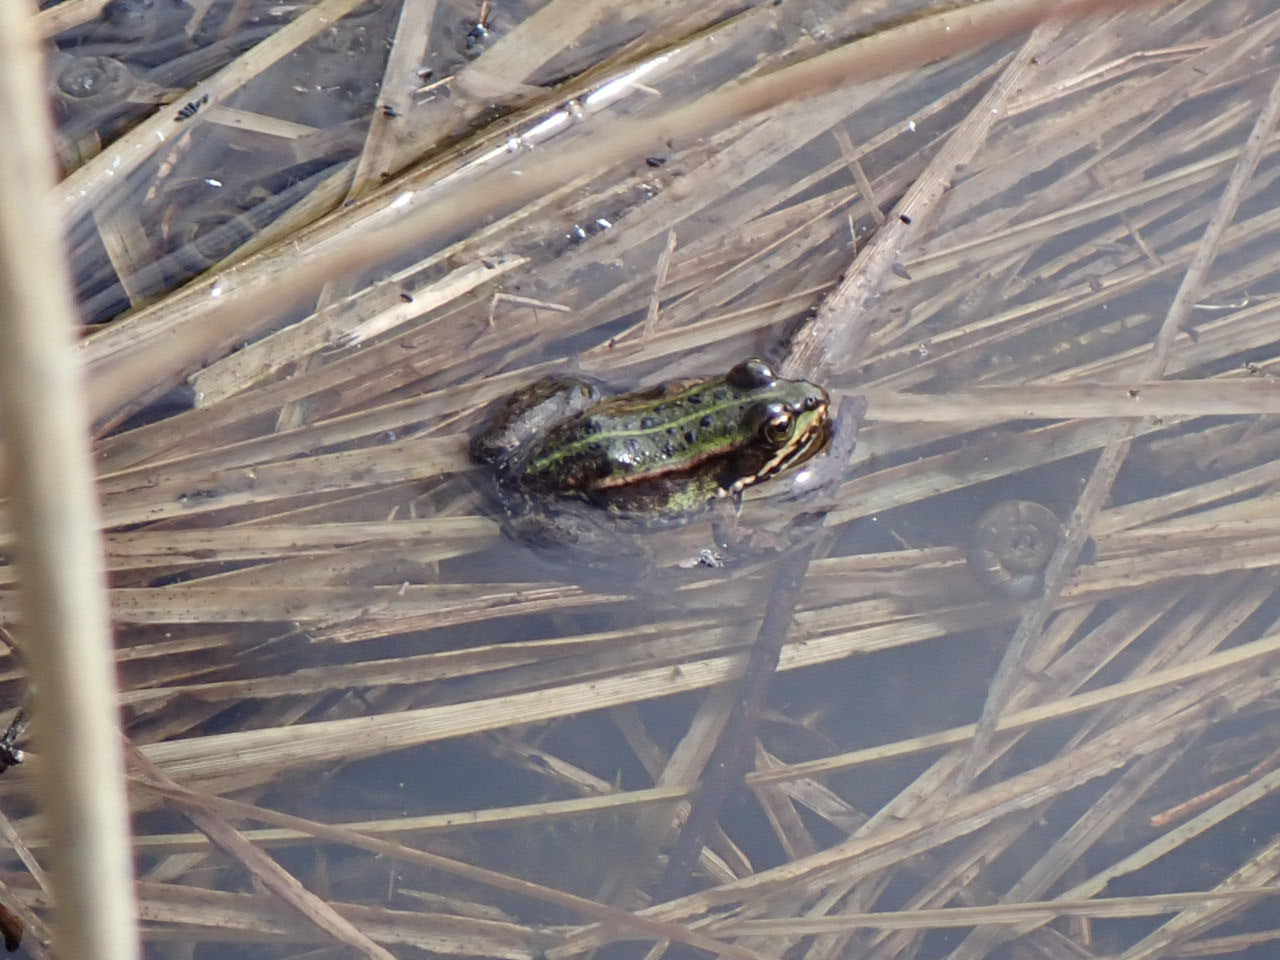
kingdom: Animalia
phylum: Chordata
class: Amphibia
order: Anura
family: Ranidae
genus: Pelophylax
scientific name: Pelophylax lessonae
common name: Grøn frø
